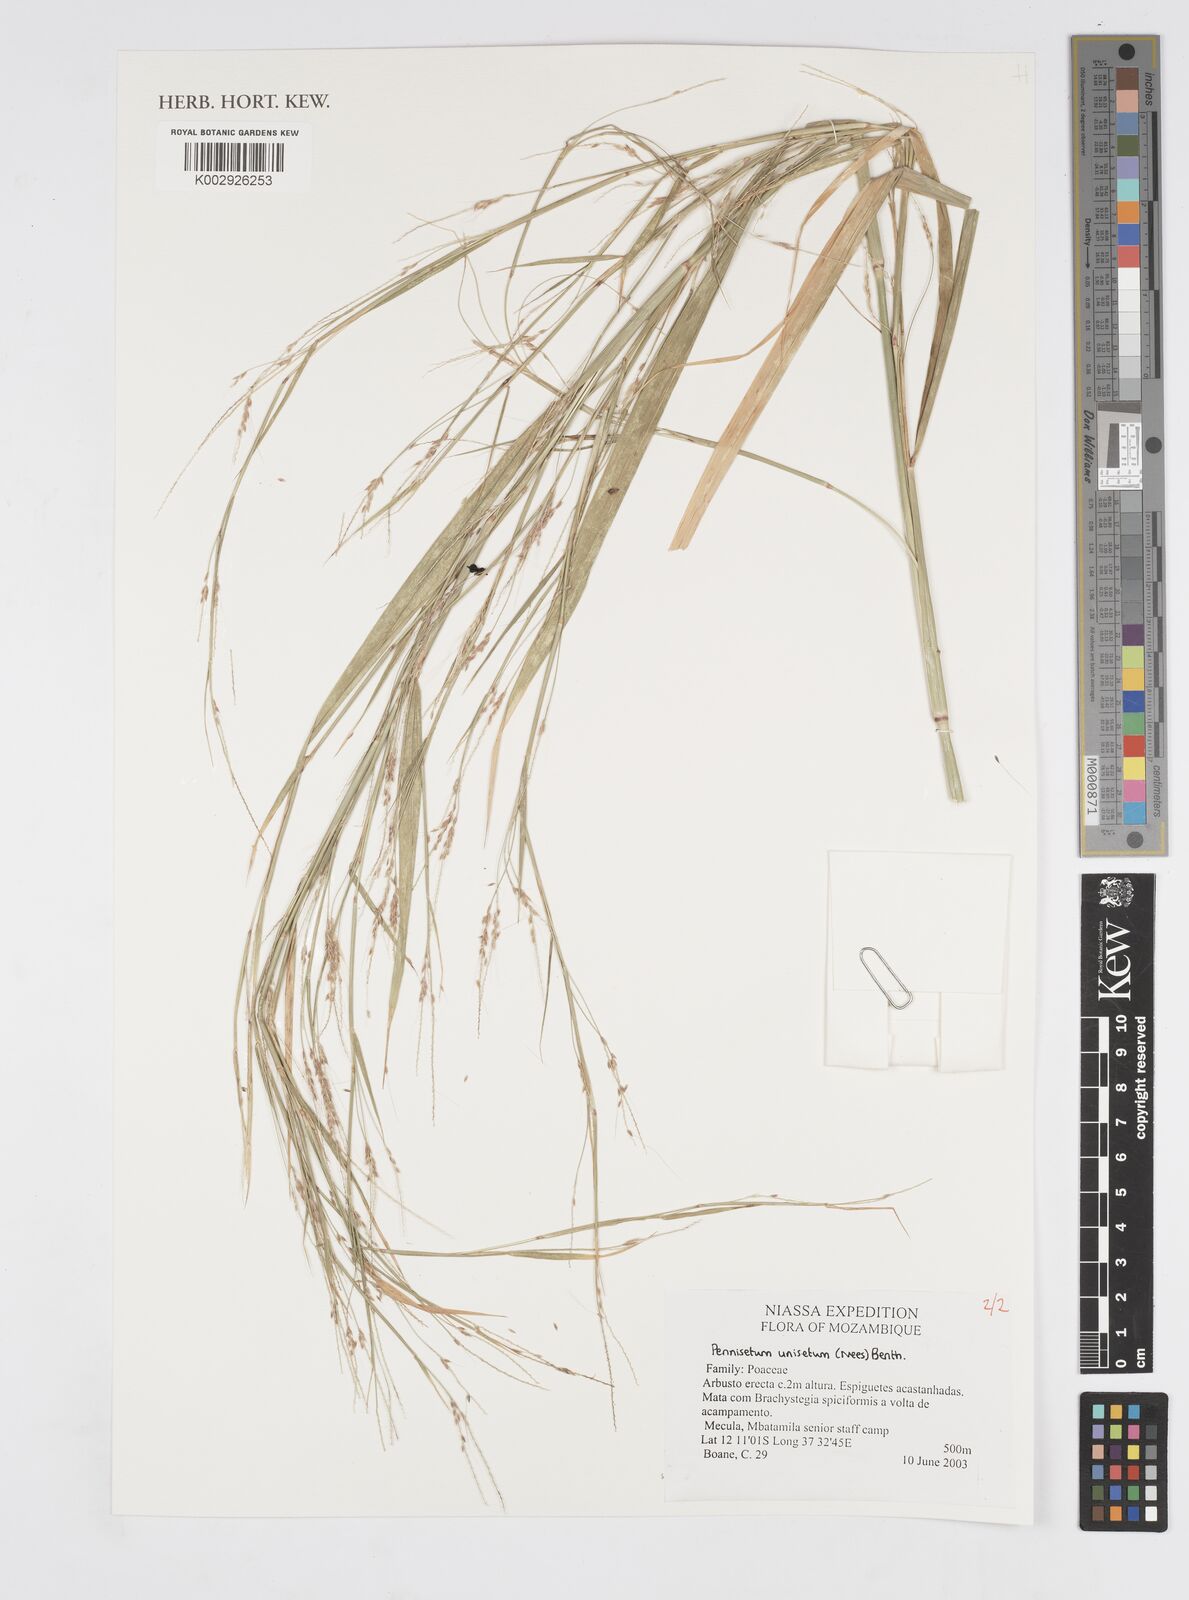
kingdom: Plantae
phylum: Tracheophyta
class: Liliopsida
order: Poales
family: Poaceae
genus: Cenchrus
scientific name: Cenchrus unisetus
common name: Natal grass
